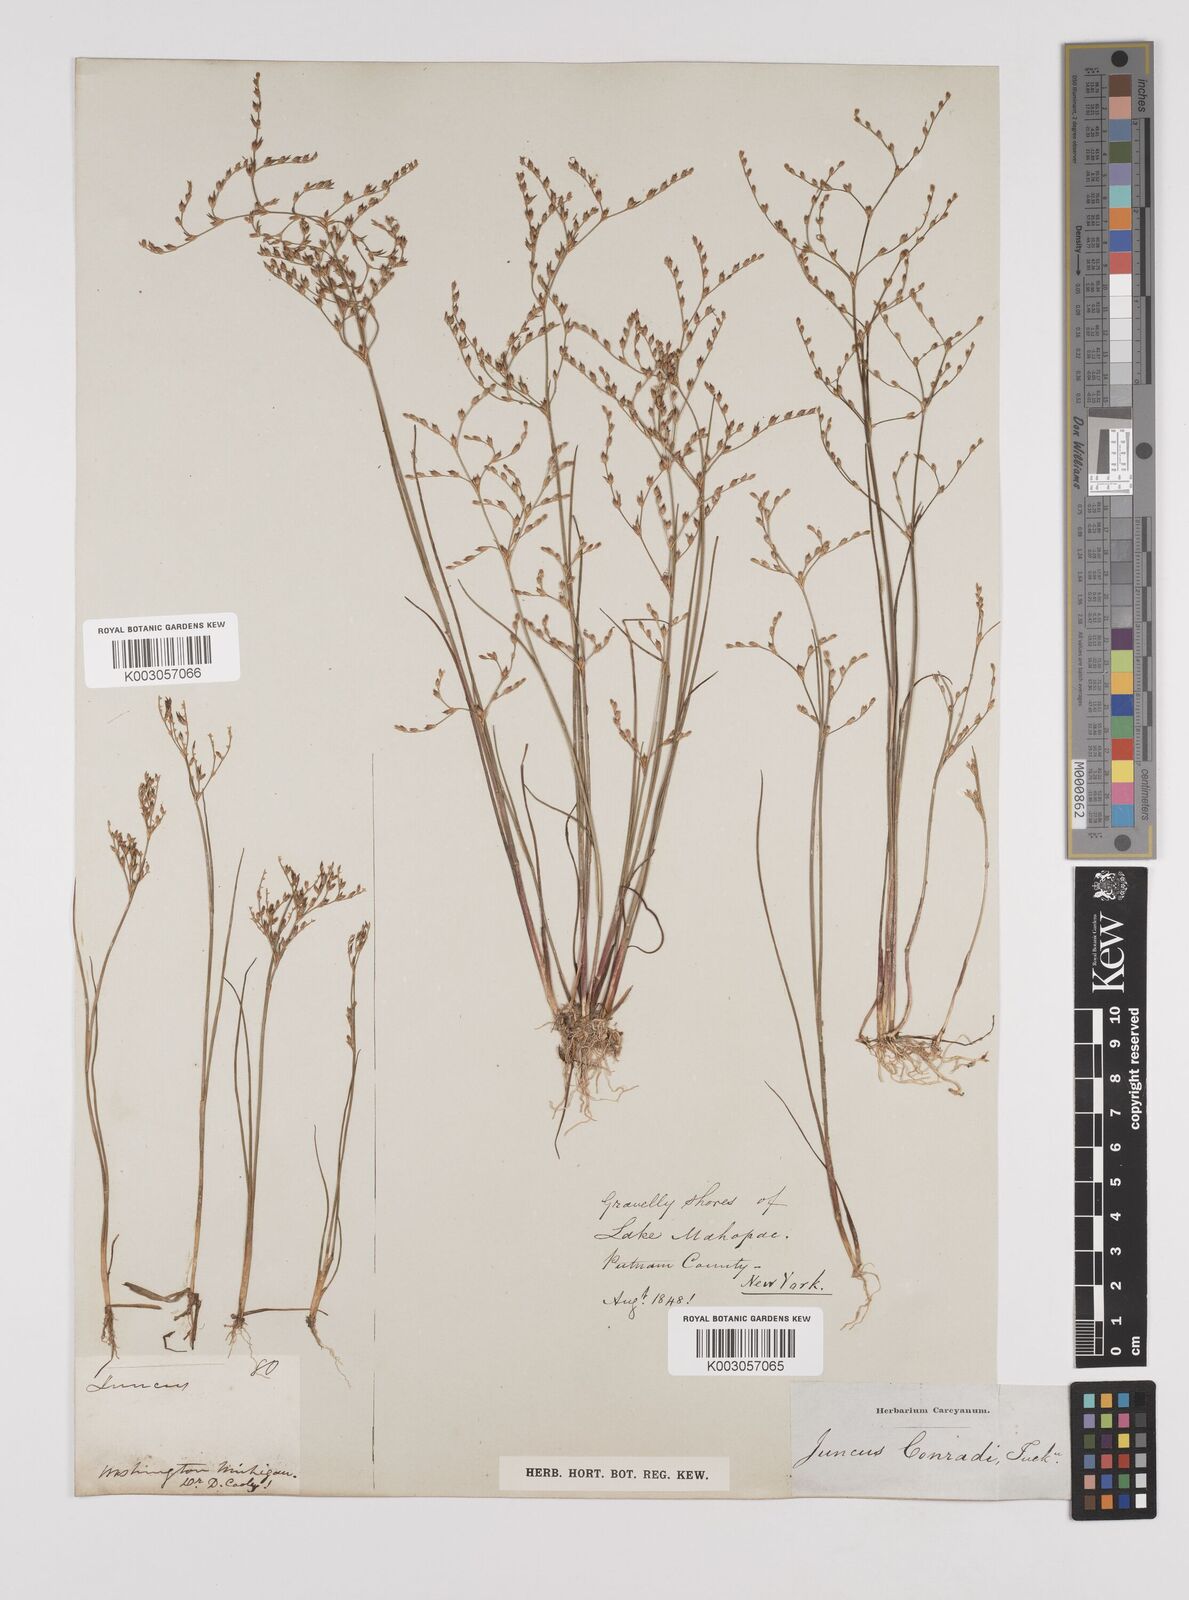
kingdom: Plantae
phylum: Tracheophyta
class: Liliopsida
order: Poales
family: Juncaceae
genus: Juncus
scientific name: Juncus pelocarpus
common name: Brown-fruited rush
